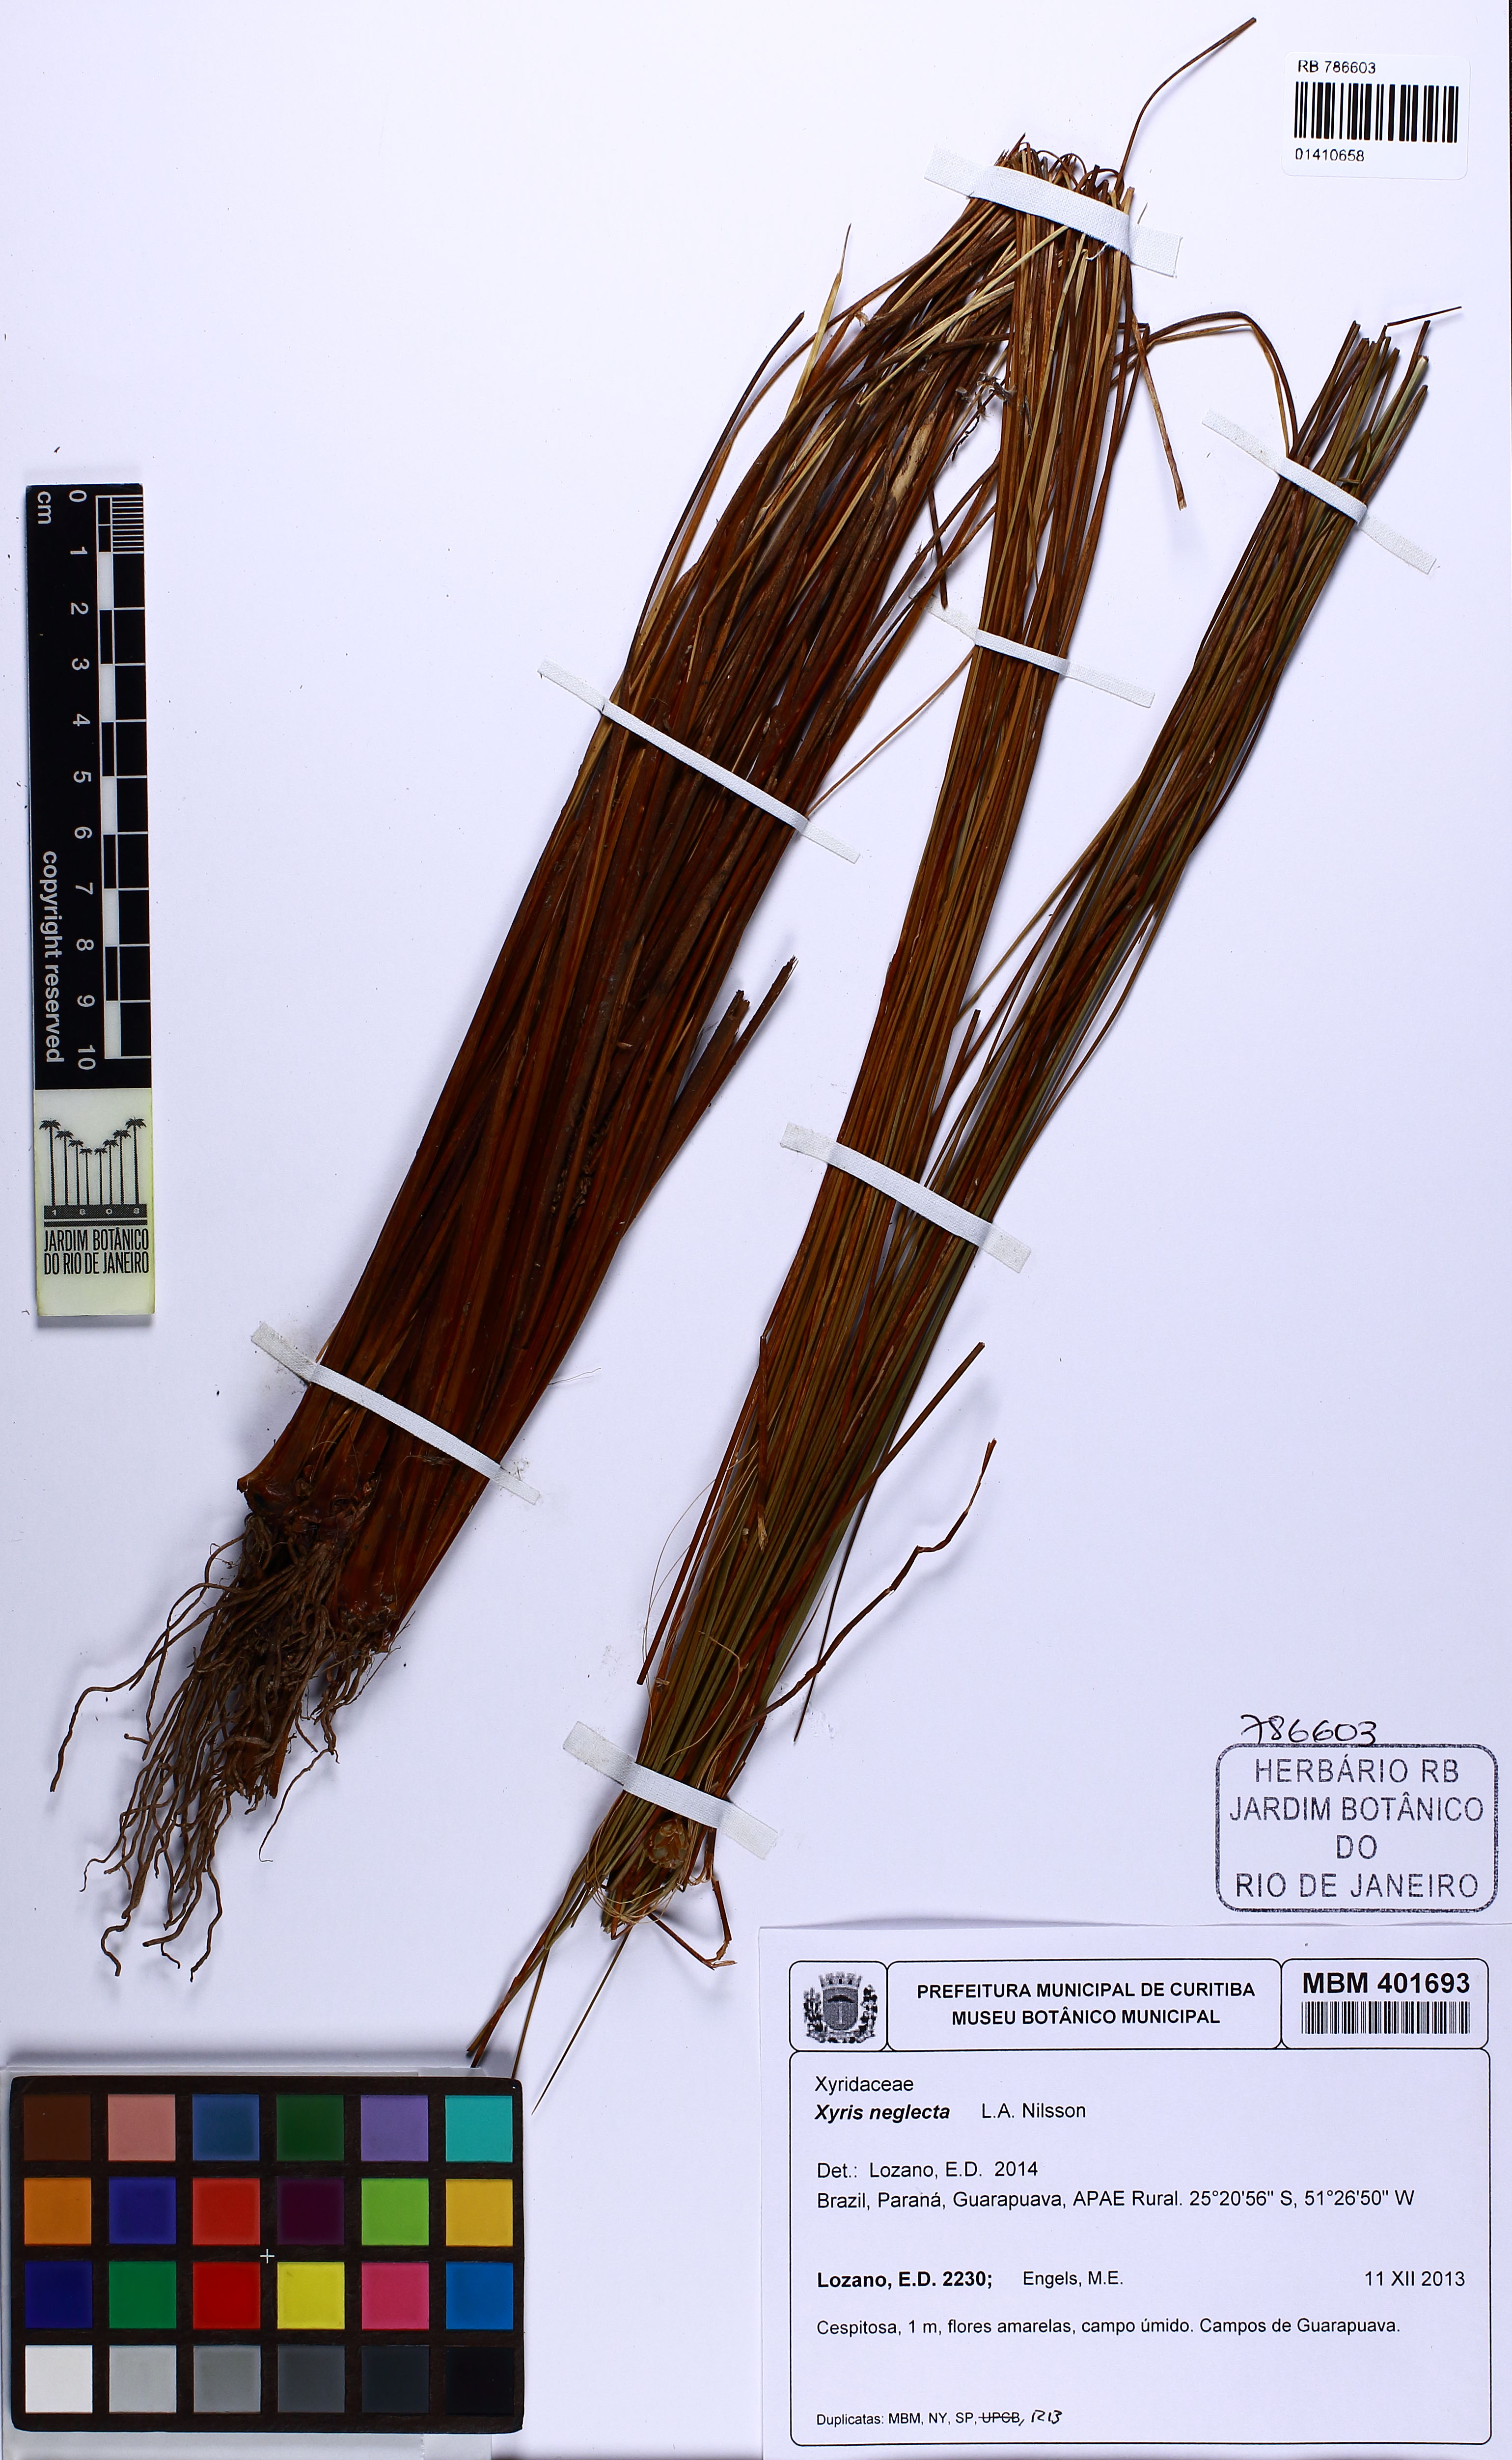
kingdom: Plantae
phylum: Tracheophyta
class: Liliopsida
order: Poales
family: Xyridaceae
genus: Xyris
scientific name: Xyris neglecta
